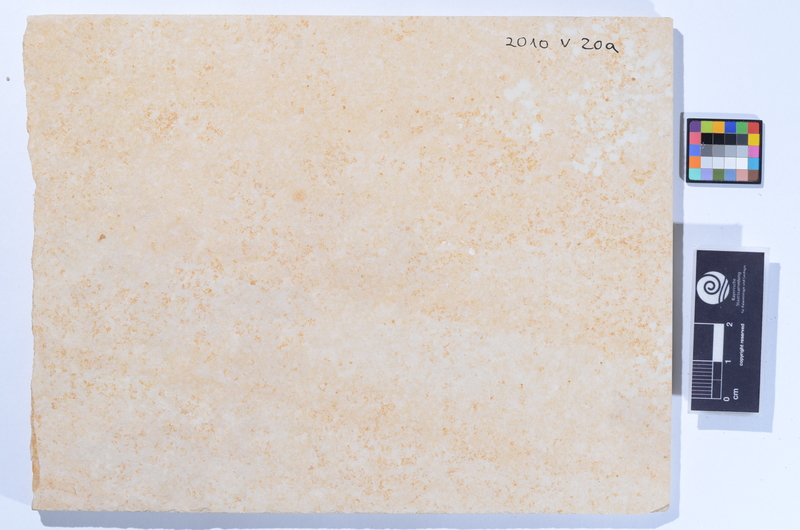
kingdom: Animalia
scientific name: Animalia
